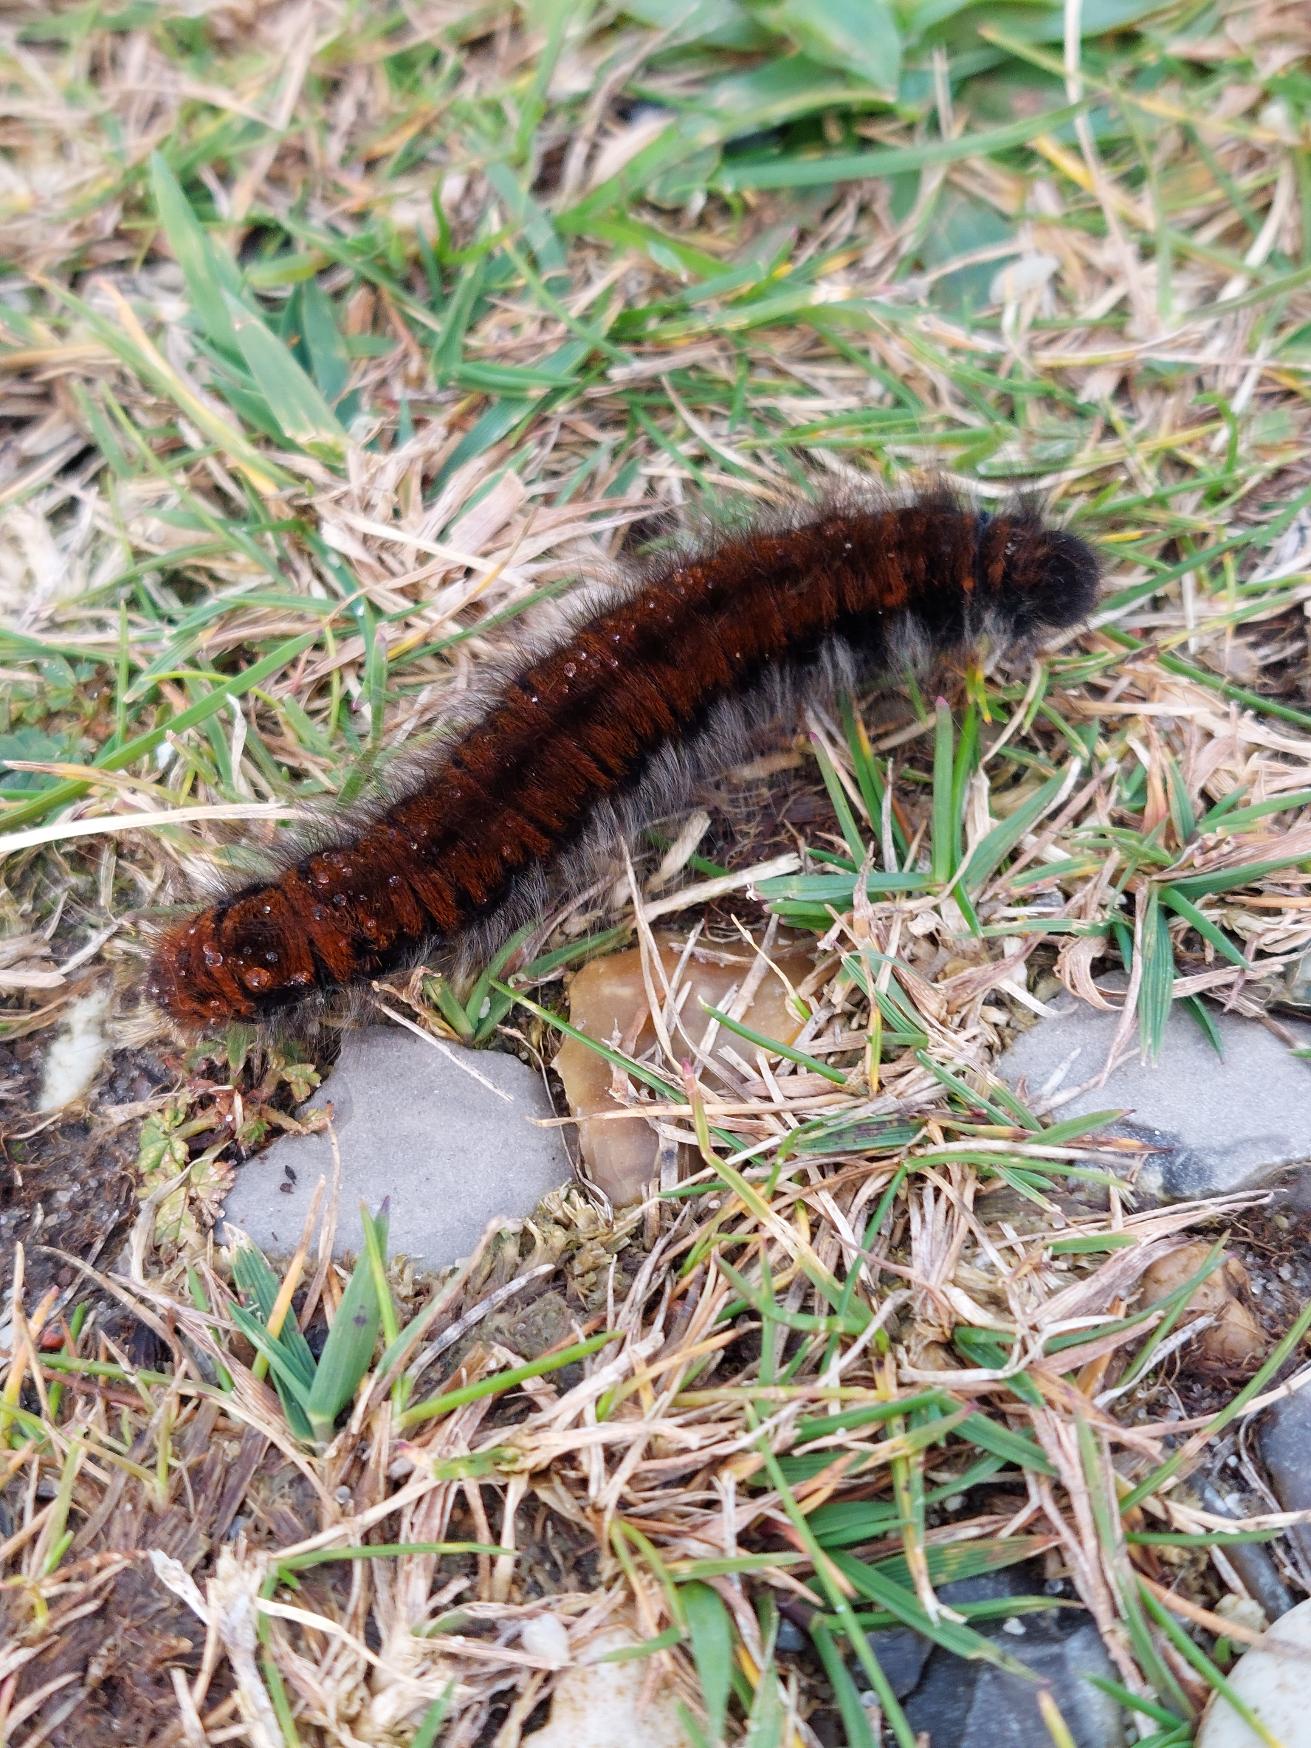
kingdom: Animalia
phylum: Arthropoda
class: Insecta
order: Lepidoptera
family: Lasiocampidae
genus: Macrothylacia
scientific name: Macrothylacia rubi
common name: Brombærspinder
